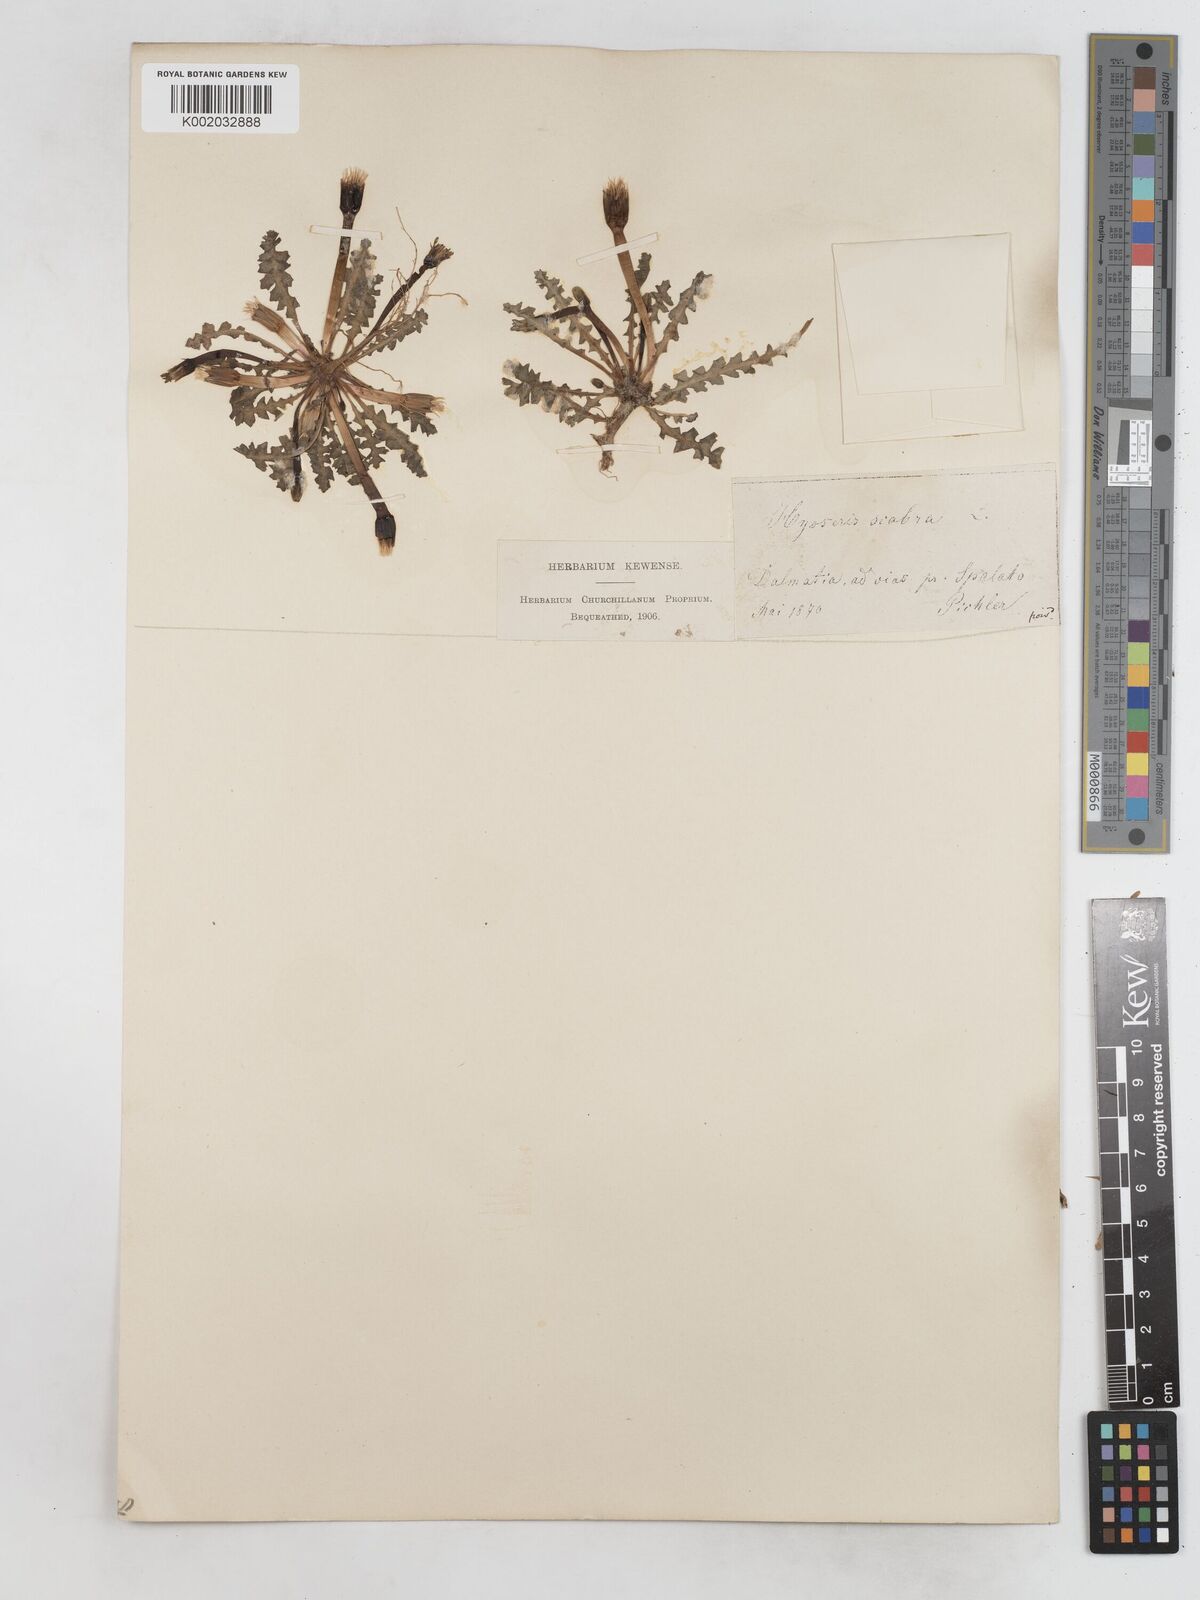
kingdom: Plantae
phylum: Tracheophyta
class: Magnoliopsida
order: Asterales
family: Asteraceae
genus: Hyoseris
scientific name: Hyoseris scabra
